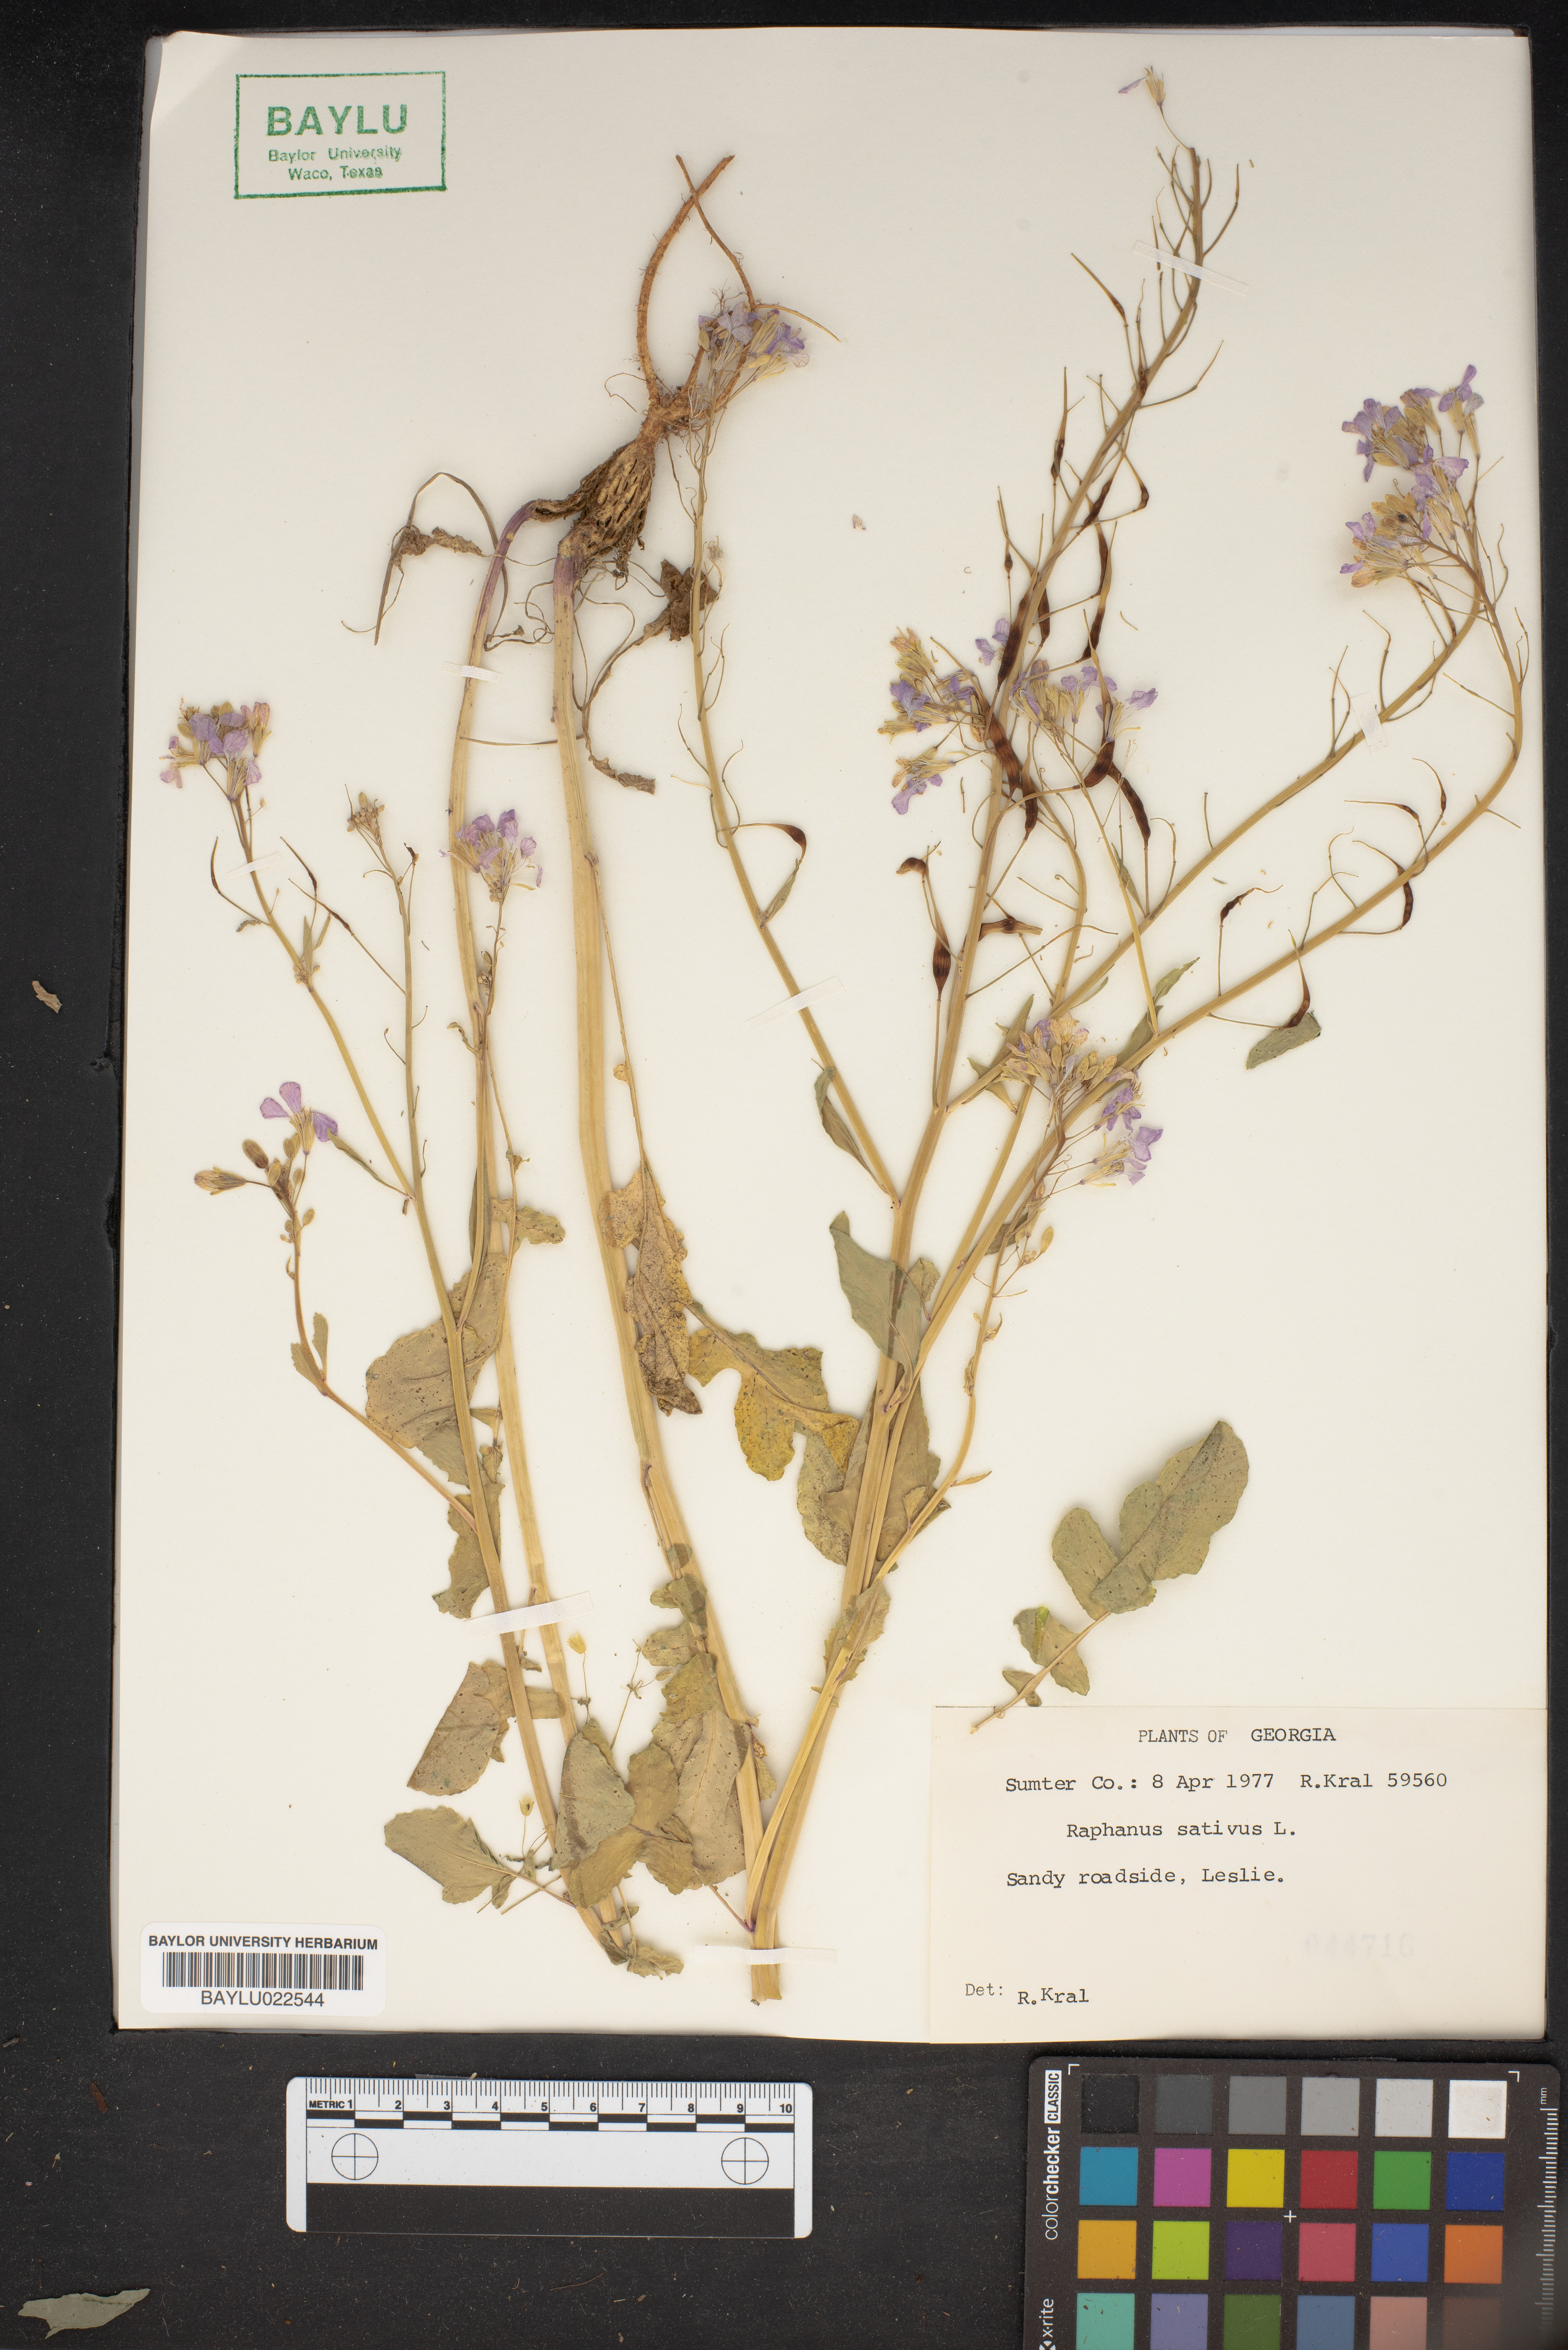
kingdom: Plantae
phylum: Tracheophyta
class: Magnoliopsida
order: Brassicales
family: Brassicaceae
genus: Raphanus
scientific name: Raphanus sativus
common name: Cultivated radish
